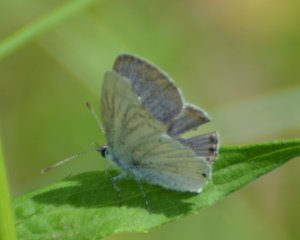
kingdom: Animalia
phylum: Arthropoda
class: Insecta
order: Lepidoptera
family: Lycaenidae
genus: Elkalyce
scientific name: Elkalyce amyntula
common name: Western Tailed-Blue
